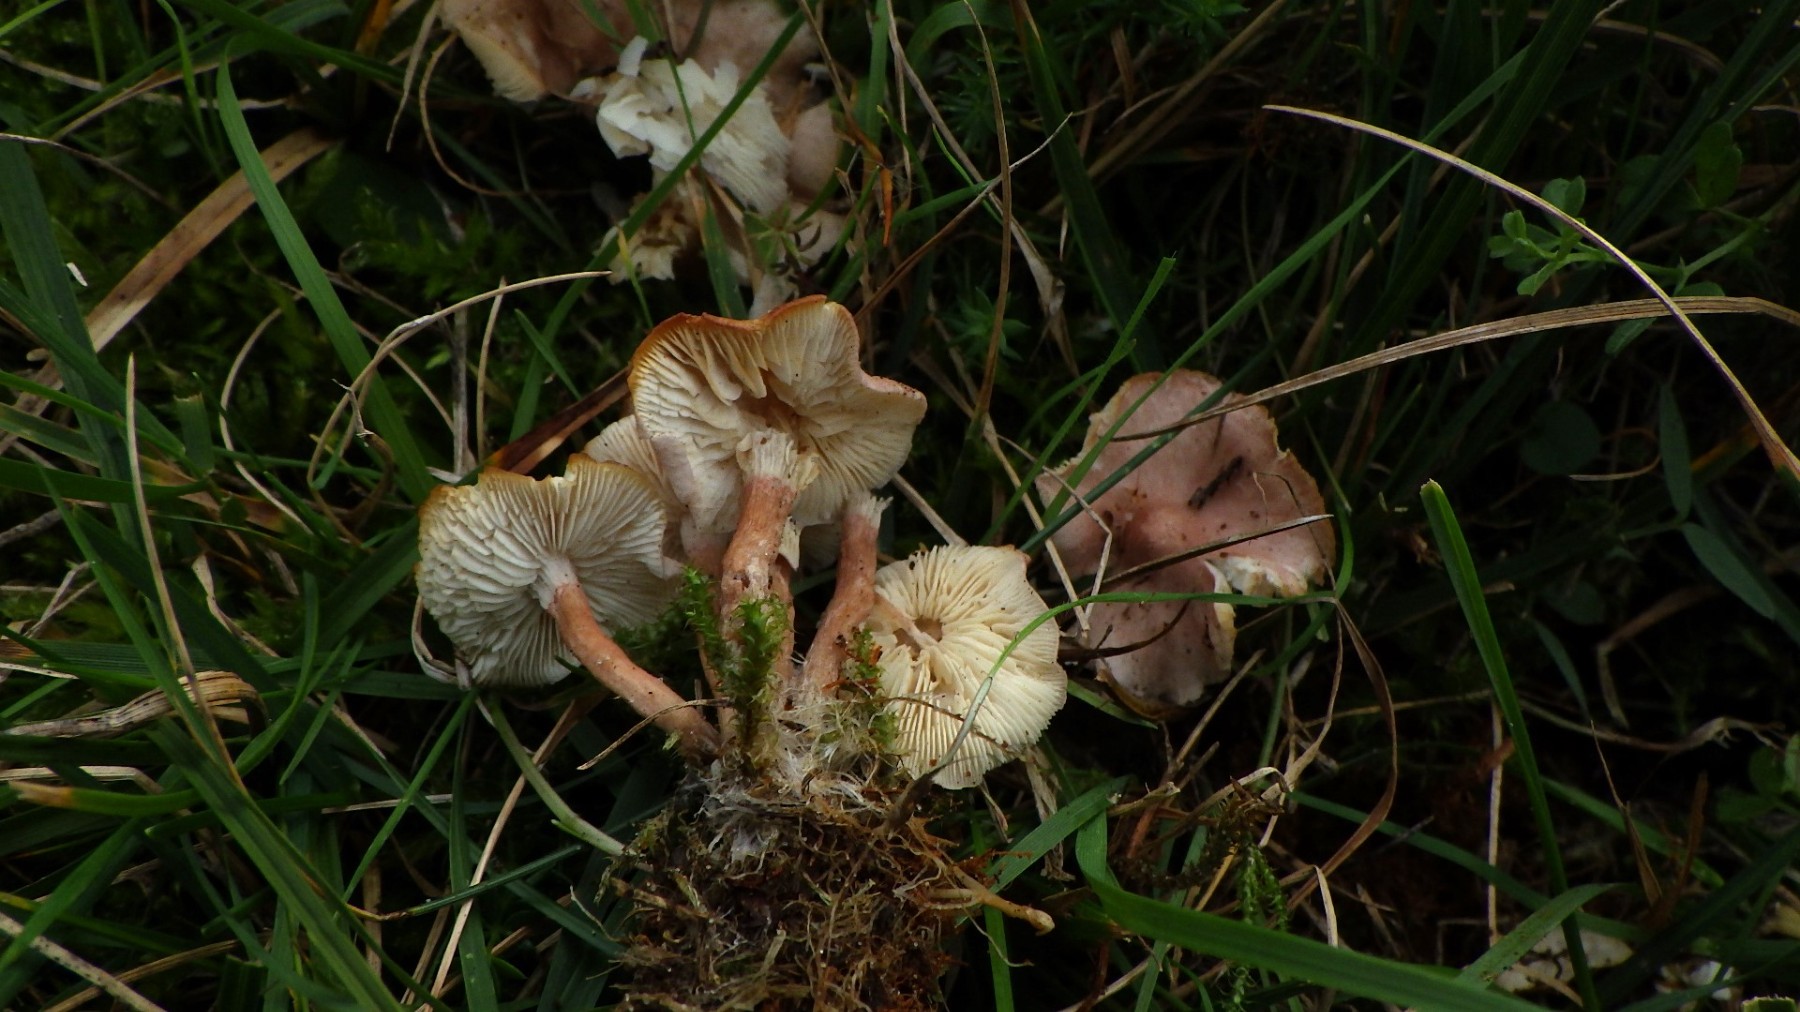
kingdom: Fungi
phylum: Basidiomycota
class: Agaricomycetes
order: Agaricales
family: Lyophyllaceae
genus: Calocybe
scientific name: Calocybe carnea
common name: rosa fagerhat
